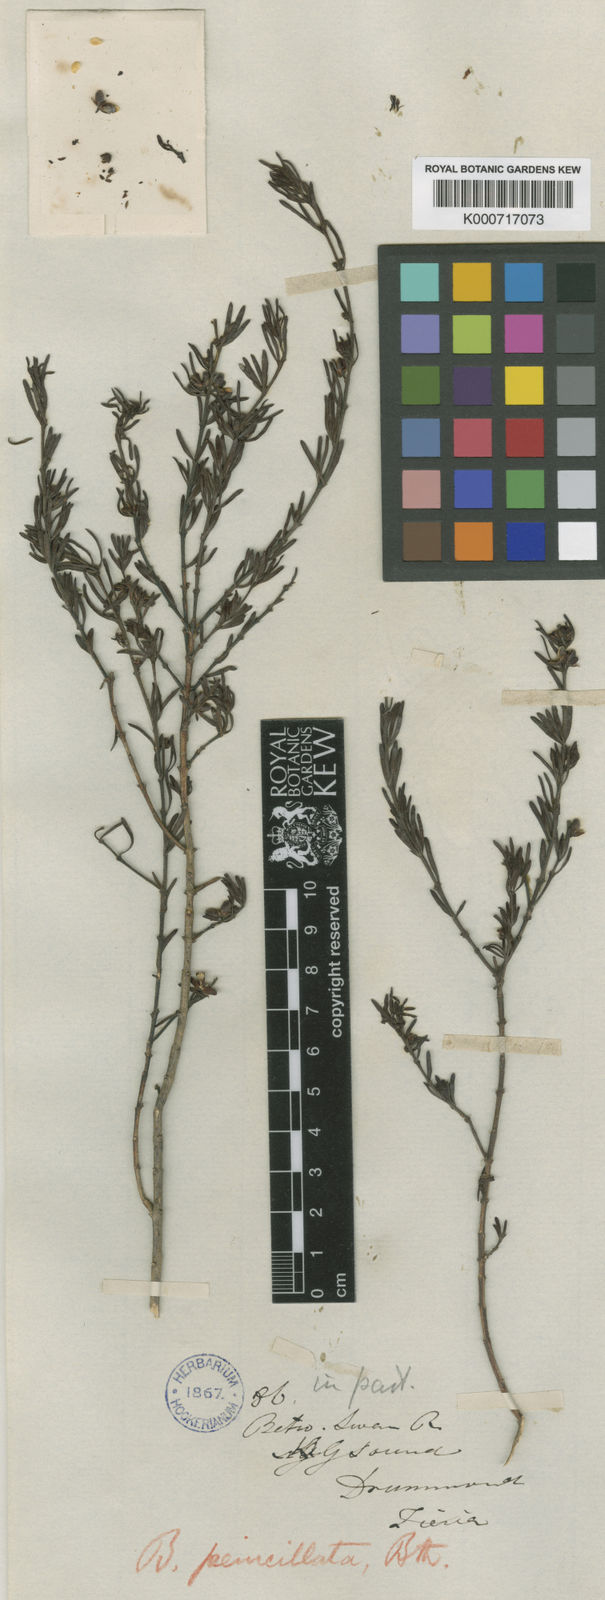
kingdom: Plantae
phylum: Tracheophyta
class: Magnoliopsida
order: Sapindales
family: Rutaceae
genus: Cyanothamnus
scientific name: Cyanothamnus penicillatus
